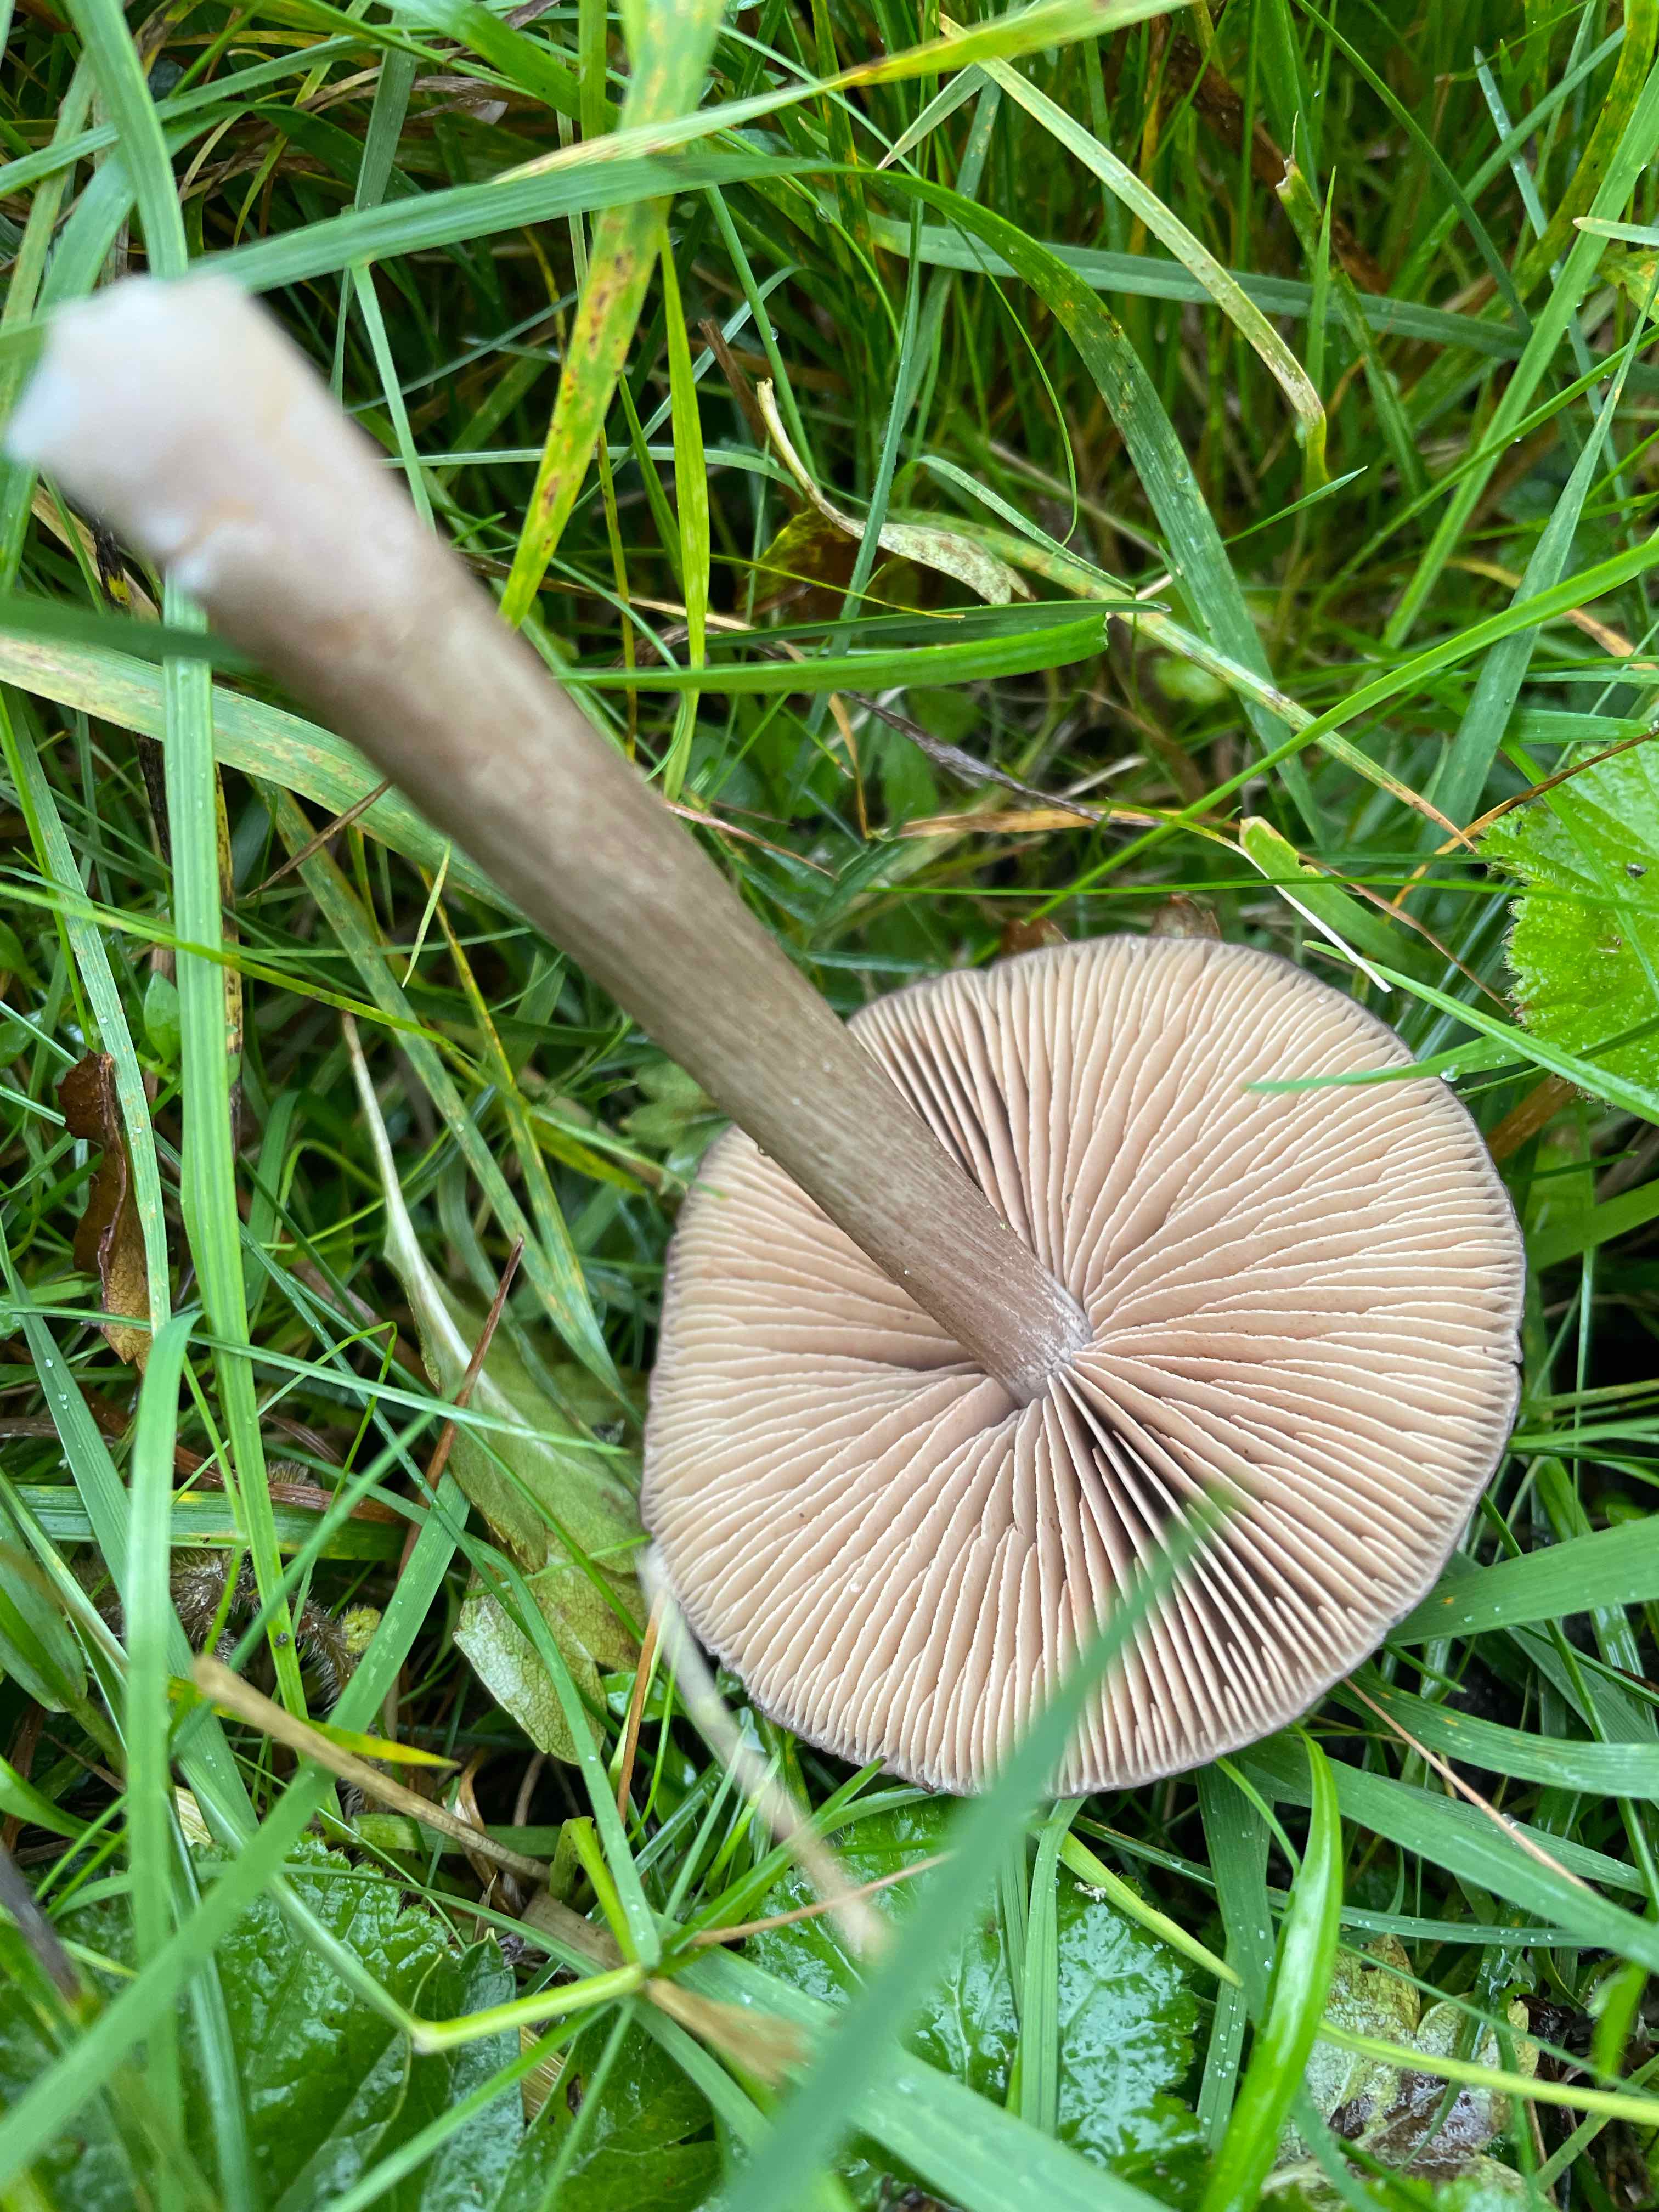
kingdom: Fungi
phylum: Basidiomycota
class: Agaricomycetes
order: Agaricales
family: Entolomataceae
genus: Entoloma
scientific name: Entoloma
